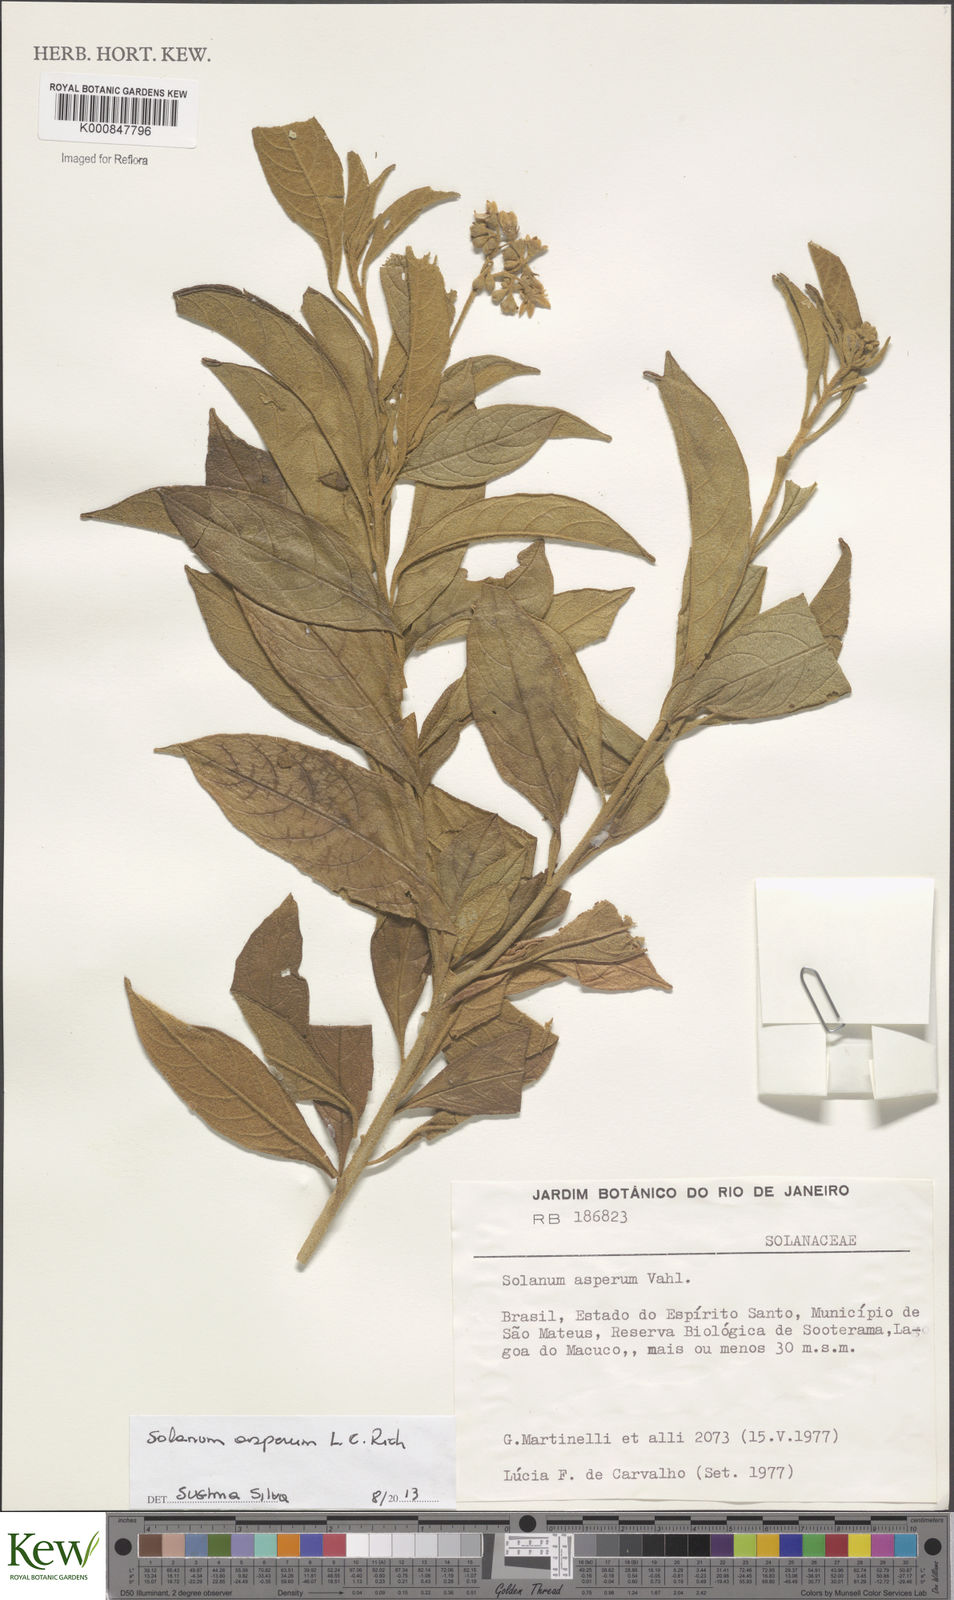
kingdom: Plantae
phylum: Tracheophyta
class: Magnoliopsida
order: Solanales
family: Solanaceae
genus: Solanum
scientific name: Solanum asperum
